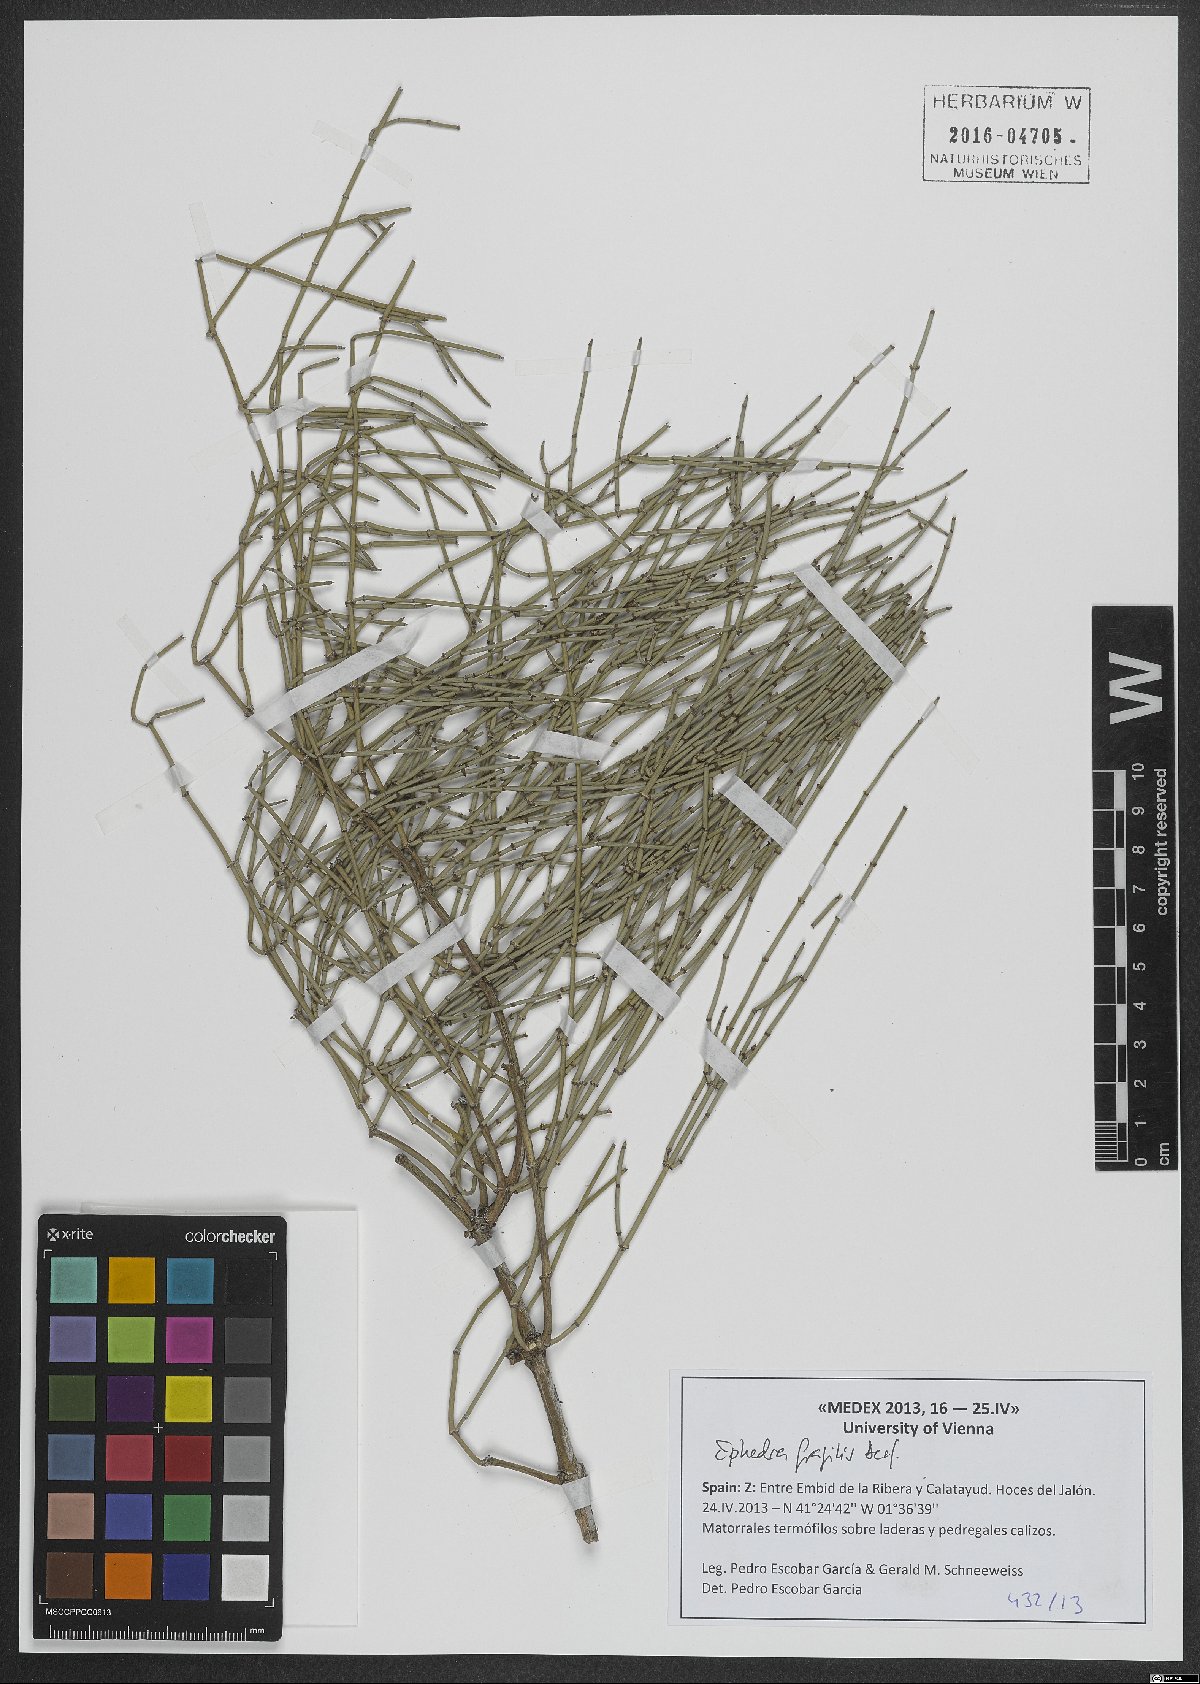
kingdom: Plantae
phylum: Tracheophyta
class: Gnetopsida
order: Ephedrales
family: Ephedraceae
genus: Ephedra
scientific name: Ephedra fragilis
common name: Joint pine
